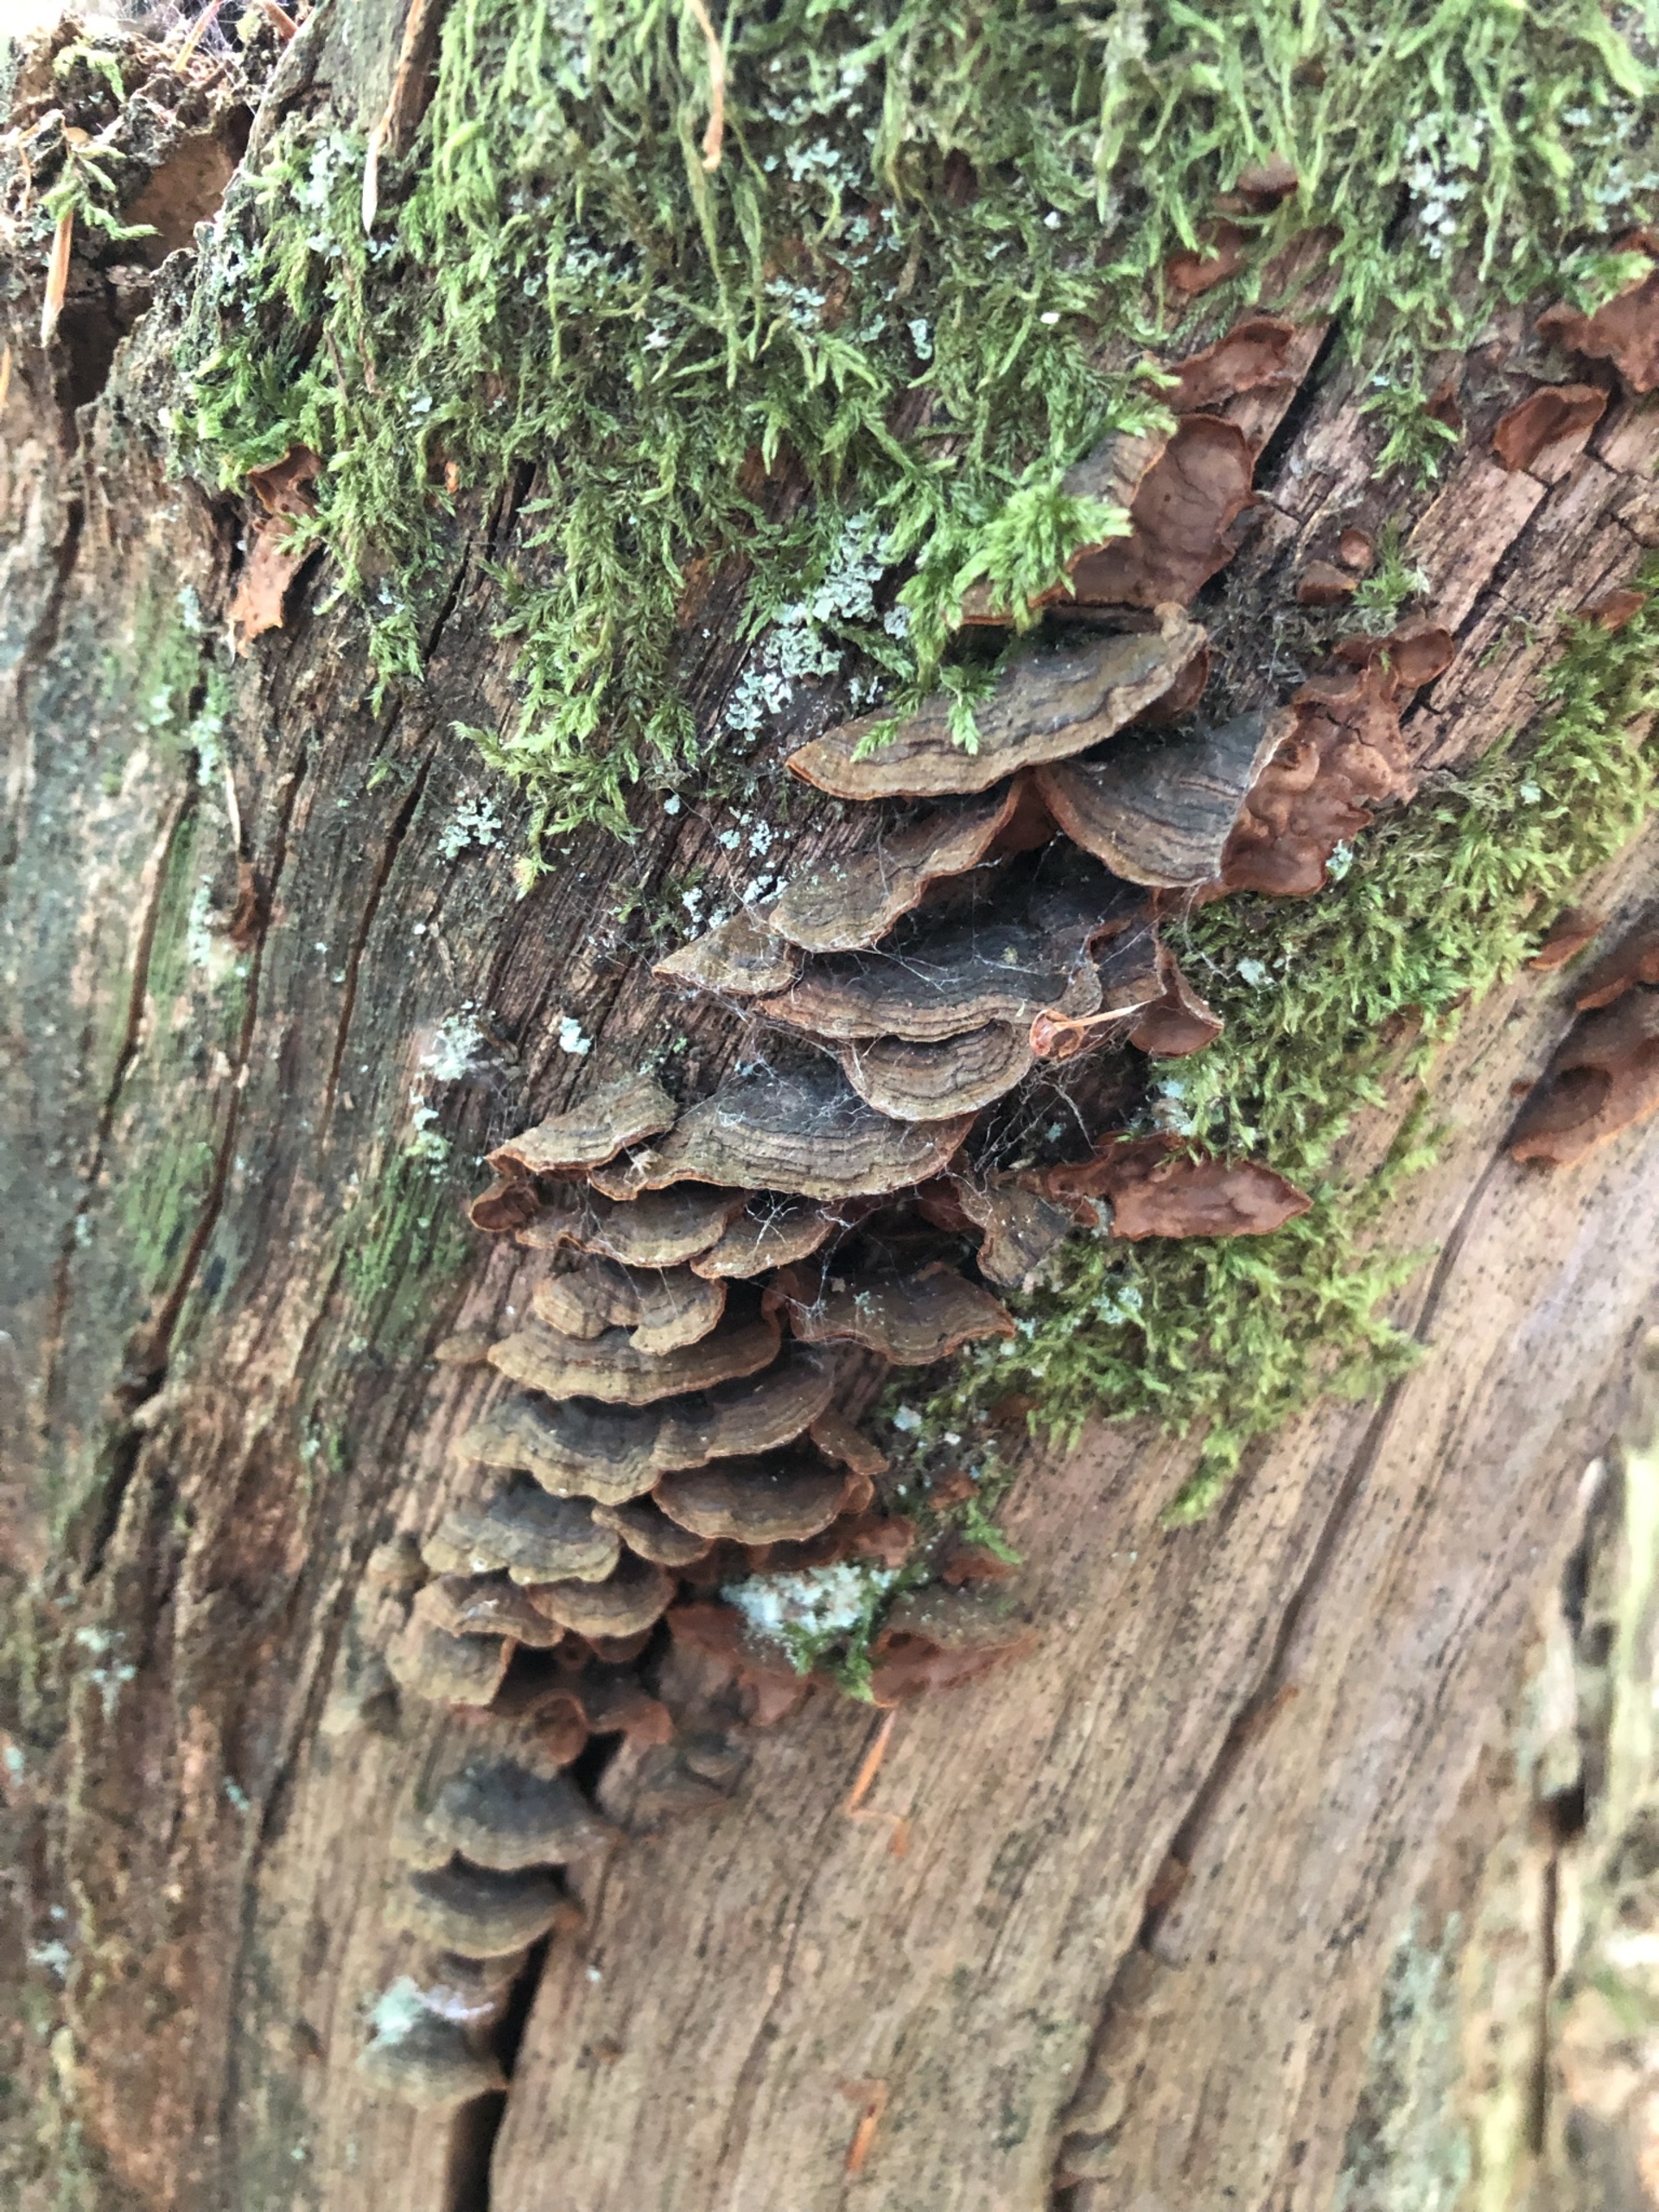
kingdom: Fungi
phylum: Basidiomycota
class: Agaricomycetes
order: Hymenochaetales
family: Hymenochaetaceae
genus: Hymenochaete
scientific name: Hymenochaete rubiginosa
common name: Stiv ruslædersvamp
